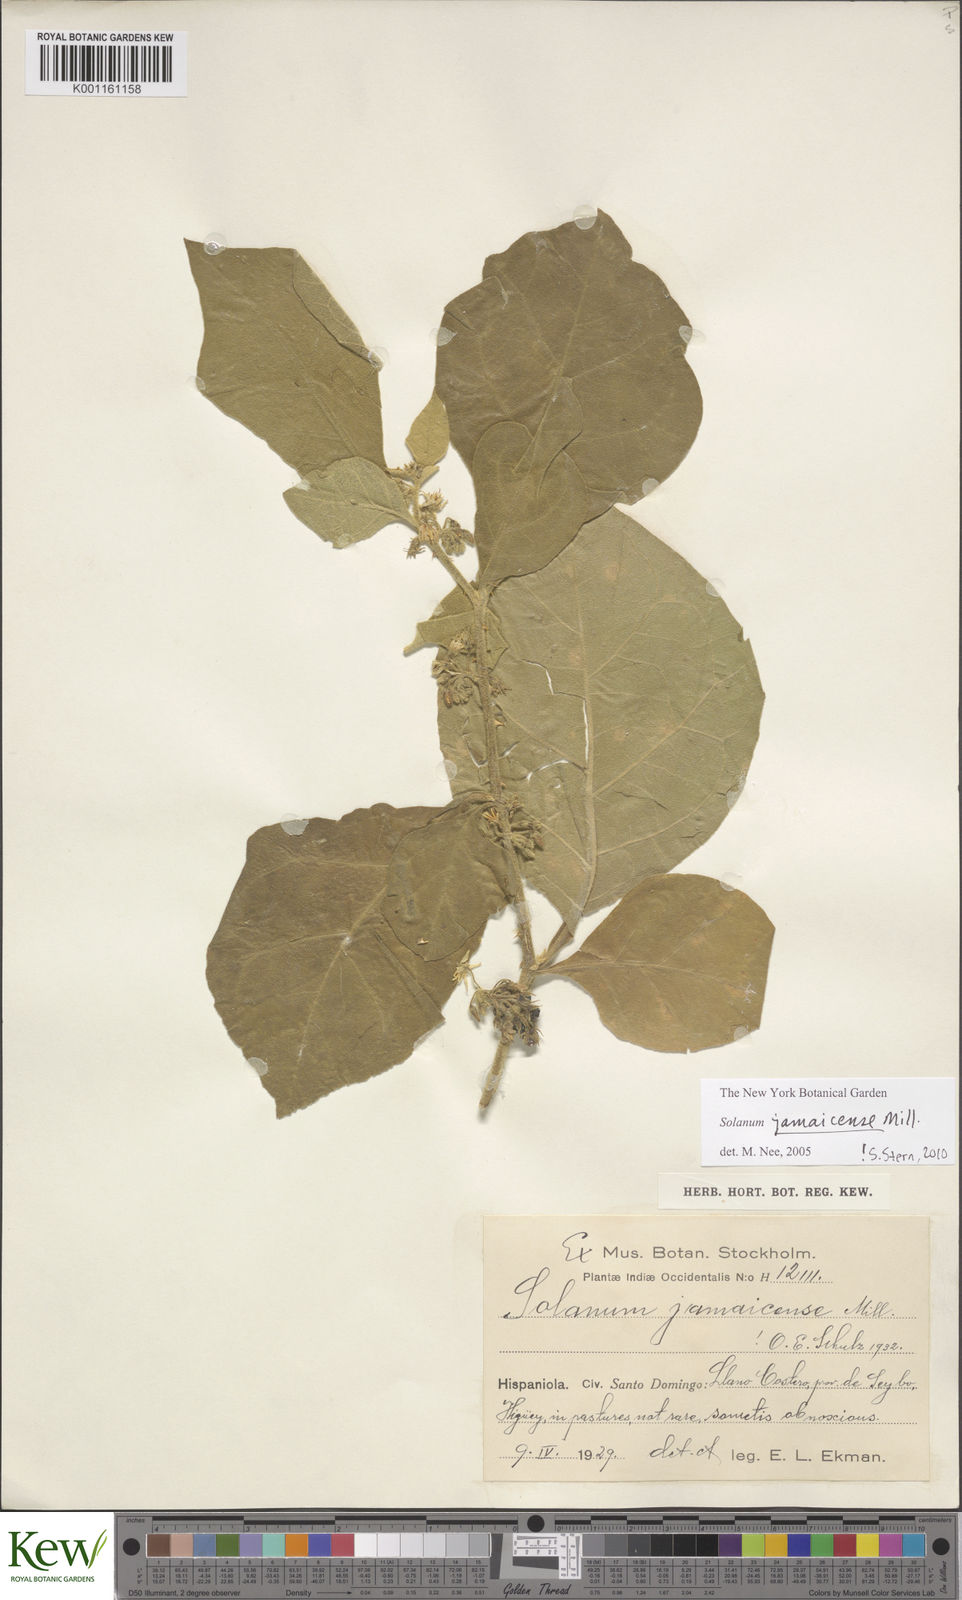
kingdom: Plantae
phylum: Tracheophyta
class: Magnoliopsida
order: Solanales
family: Solanaceae
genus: Solanum
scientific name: Solanum jamaicense
